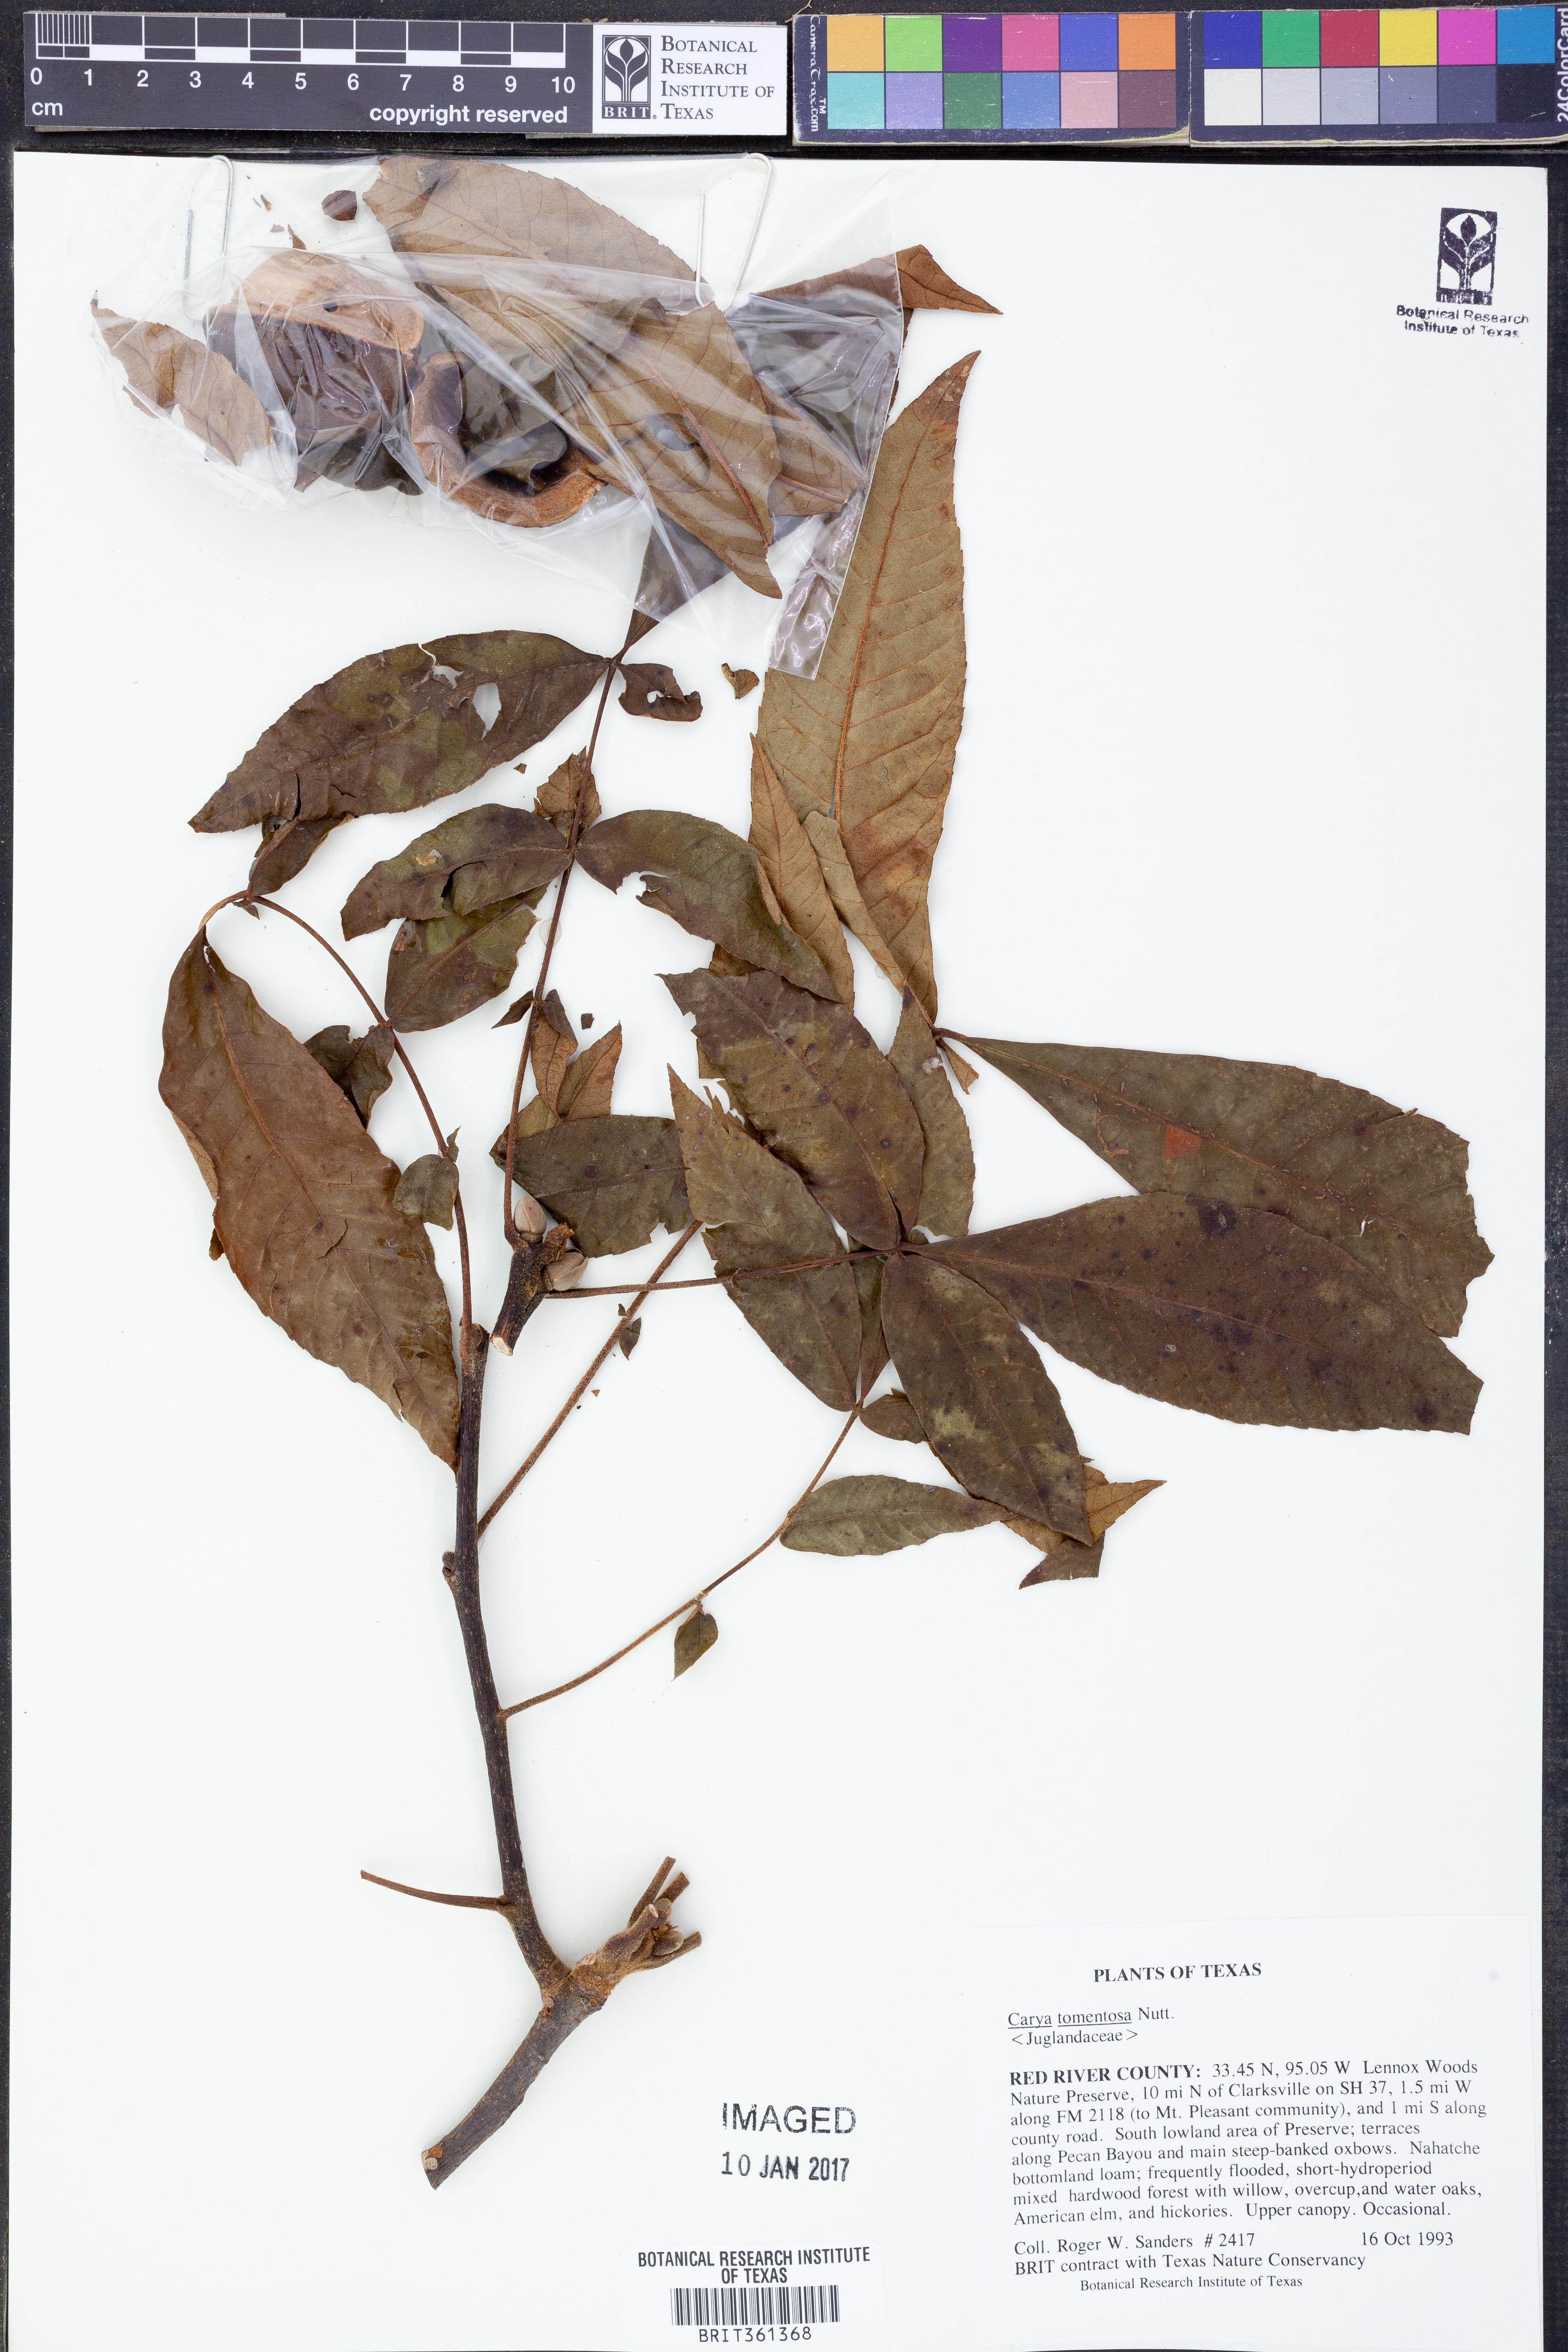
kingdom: Plantae
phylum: Tracheophyta
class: Magnoliopsida
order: Fagales
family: Juglandaceae
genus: Carya
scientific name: Carya alba
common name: Mockernut hickory
